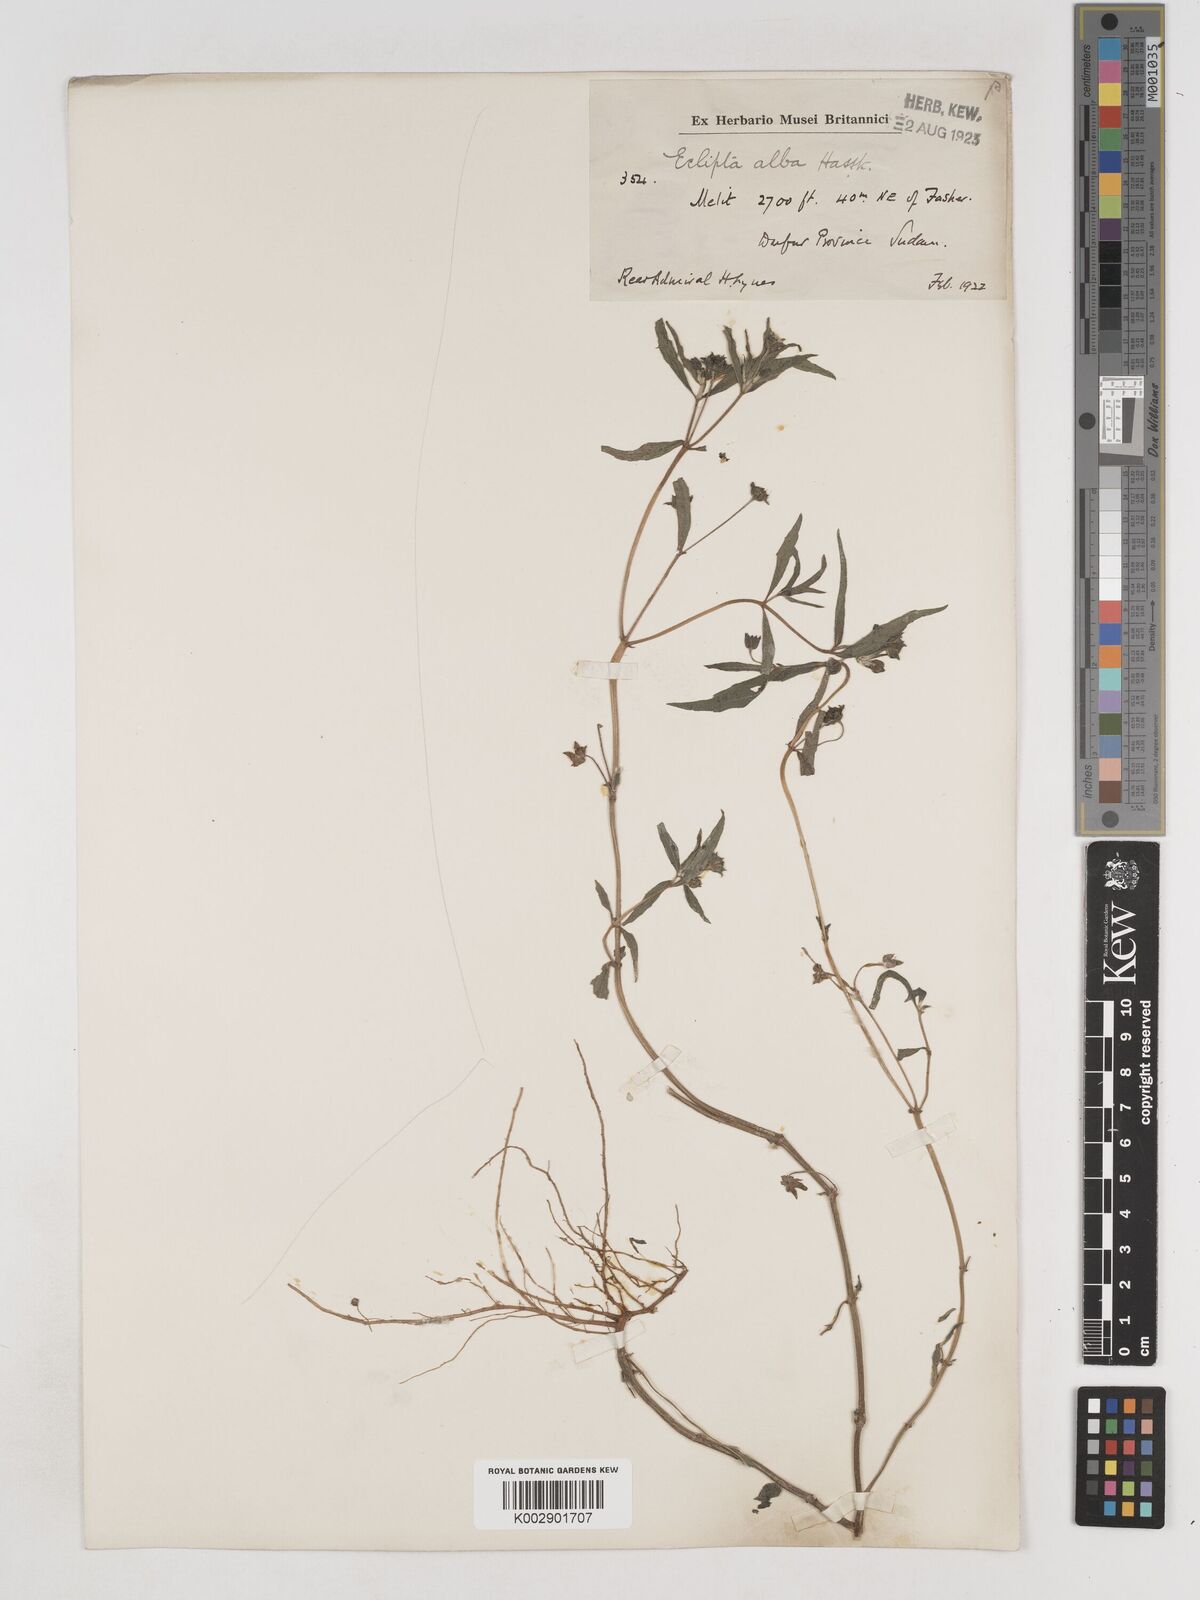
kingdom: Plantae
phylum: Tracheophyta
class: Magnoliopsida
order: Asterales
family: Asteraceae
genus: Eclipta
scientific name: Eclipta alba
